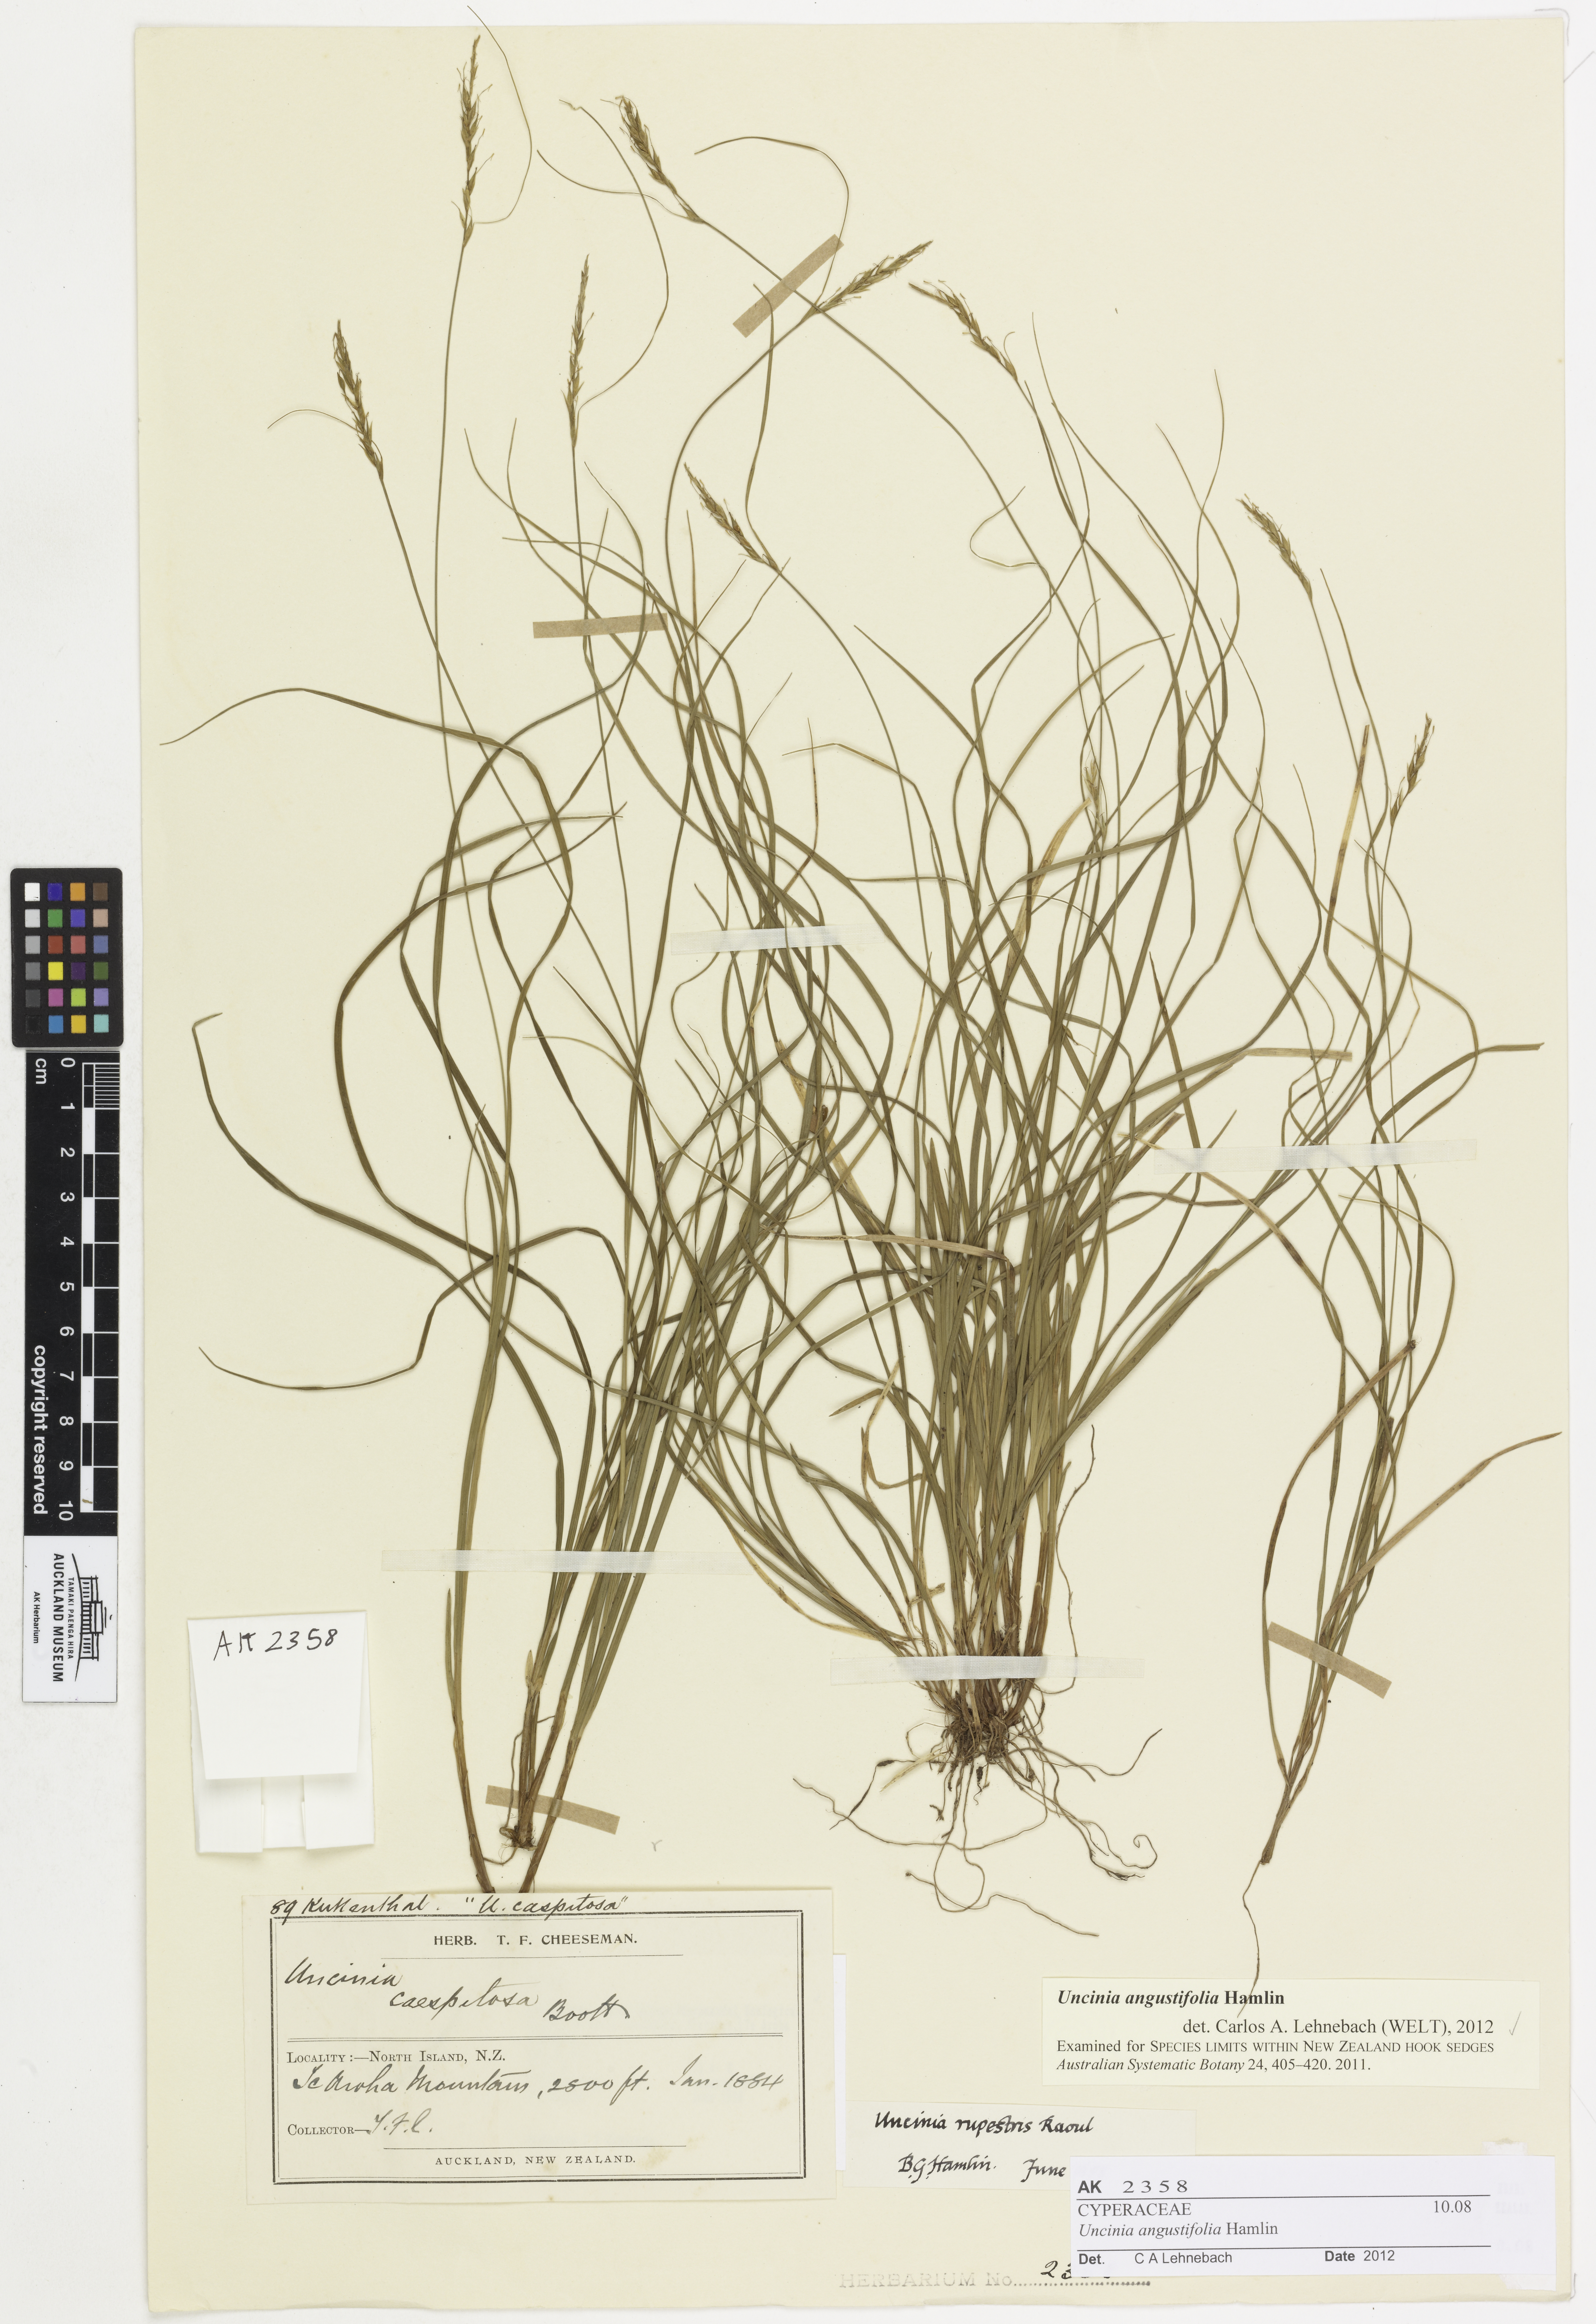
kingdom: Plantae
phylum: Tracheophyta
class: Liliopsida
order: Poales
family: Cyperaceae
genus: Carex
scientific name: Carex minor
